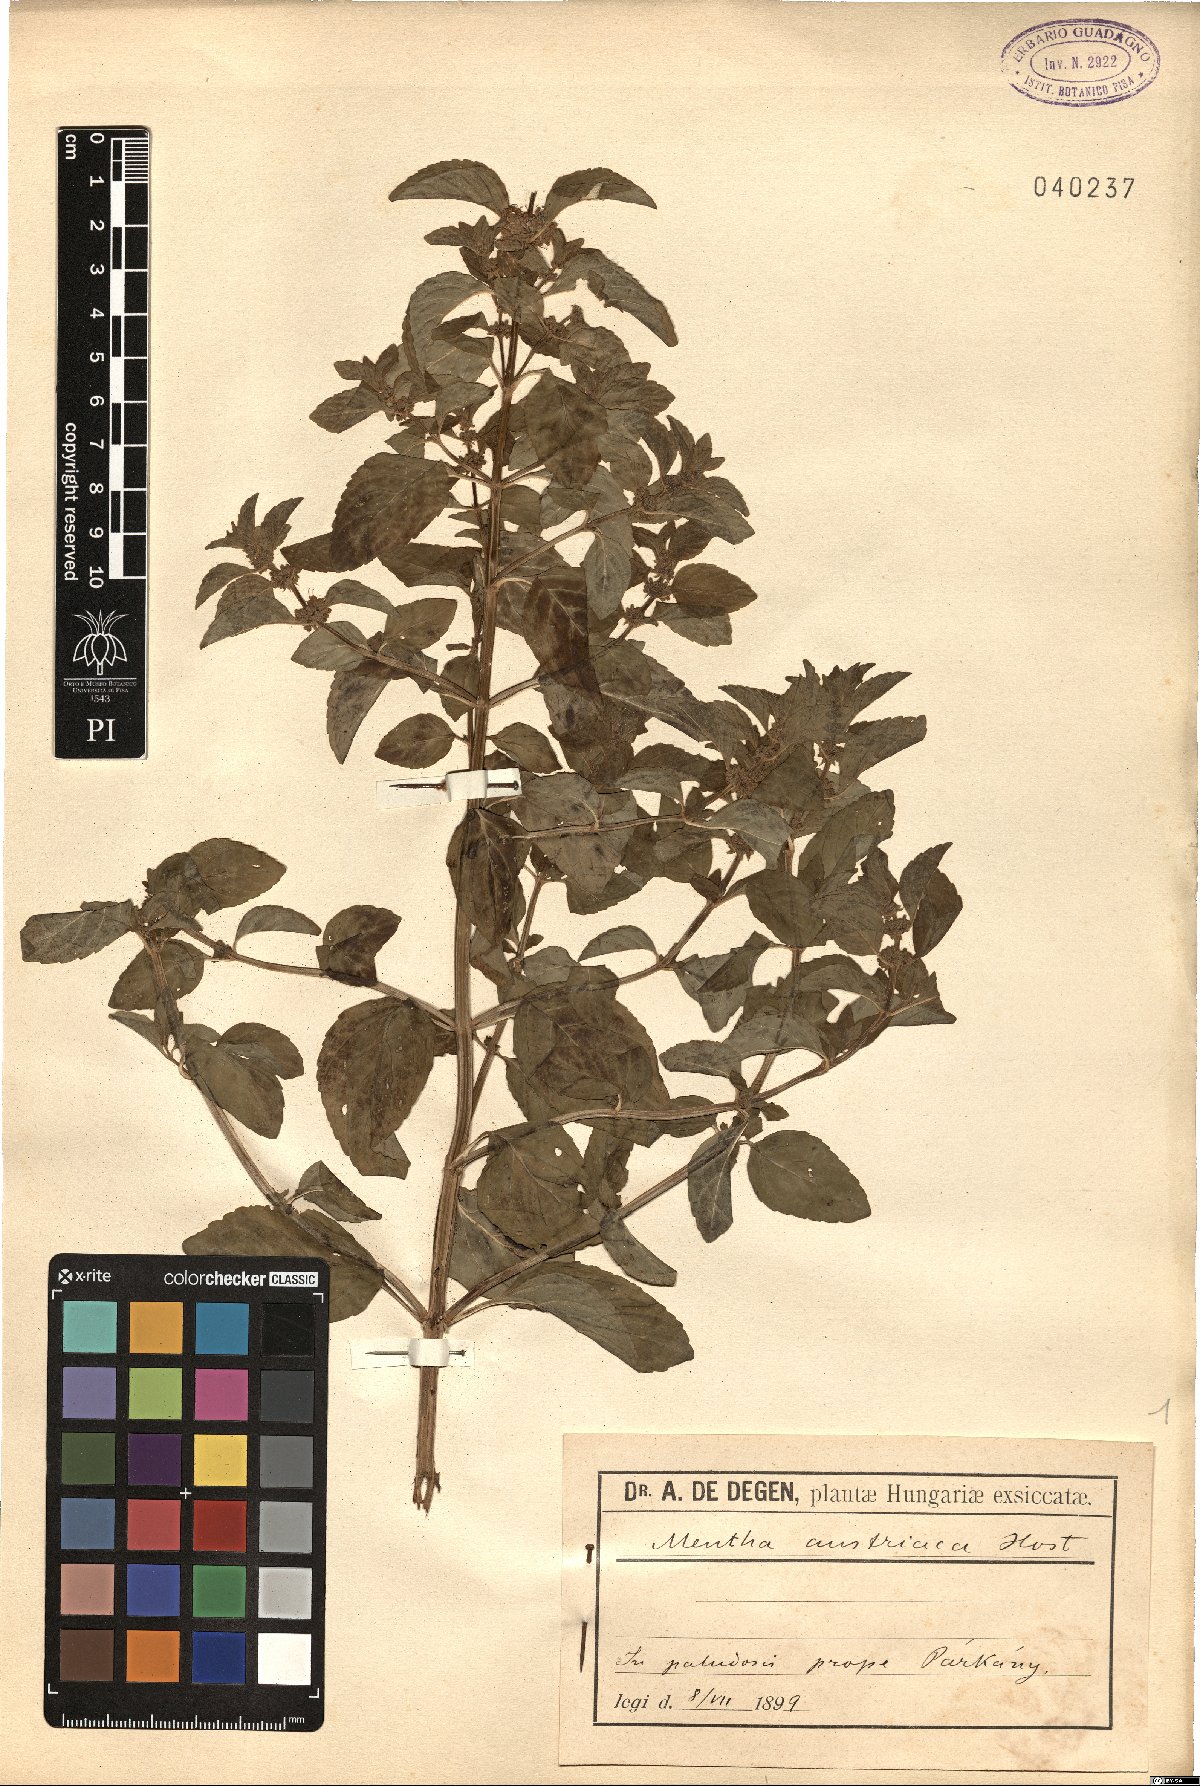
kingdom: Plantae
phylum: Tracheophyta
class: Magnoliopsida
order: Lamiales
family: Lamiaceae
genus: Mentha
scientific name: Mentha arvensis
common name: Corn mint
